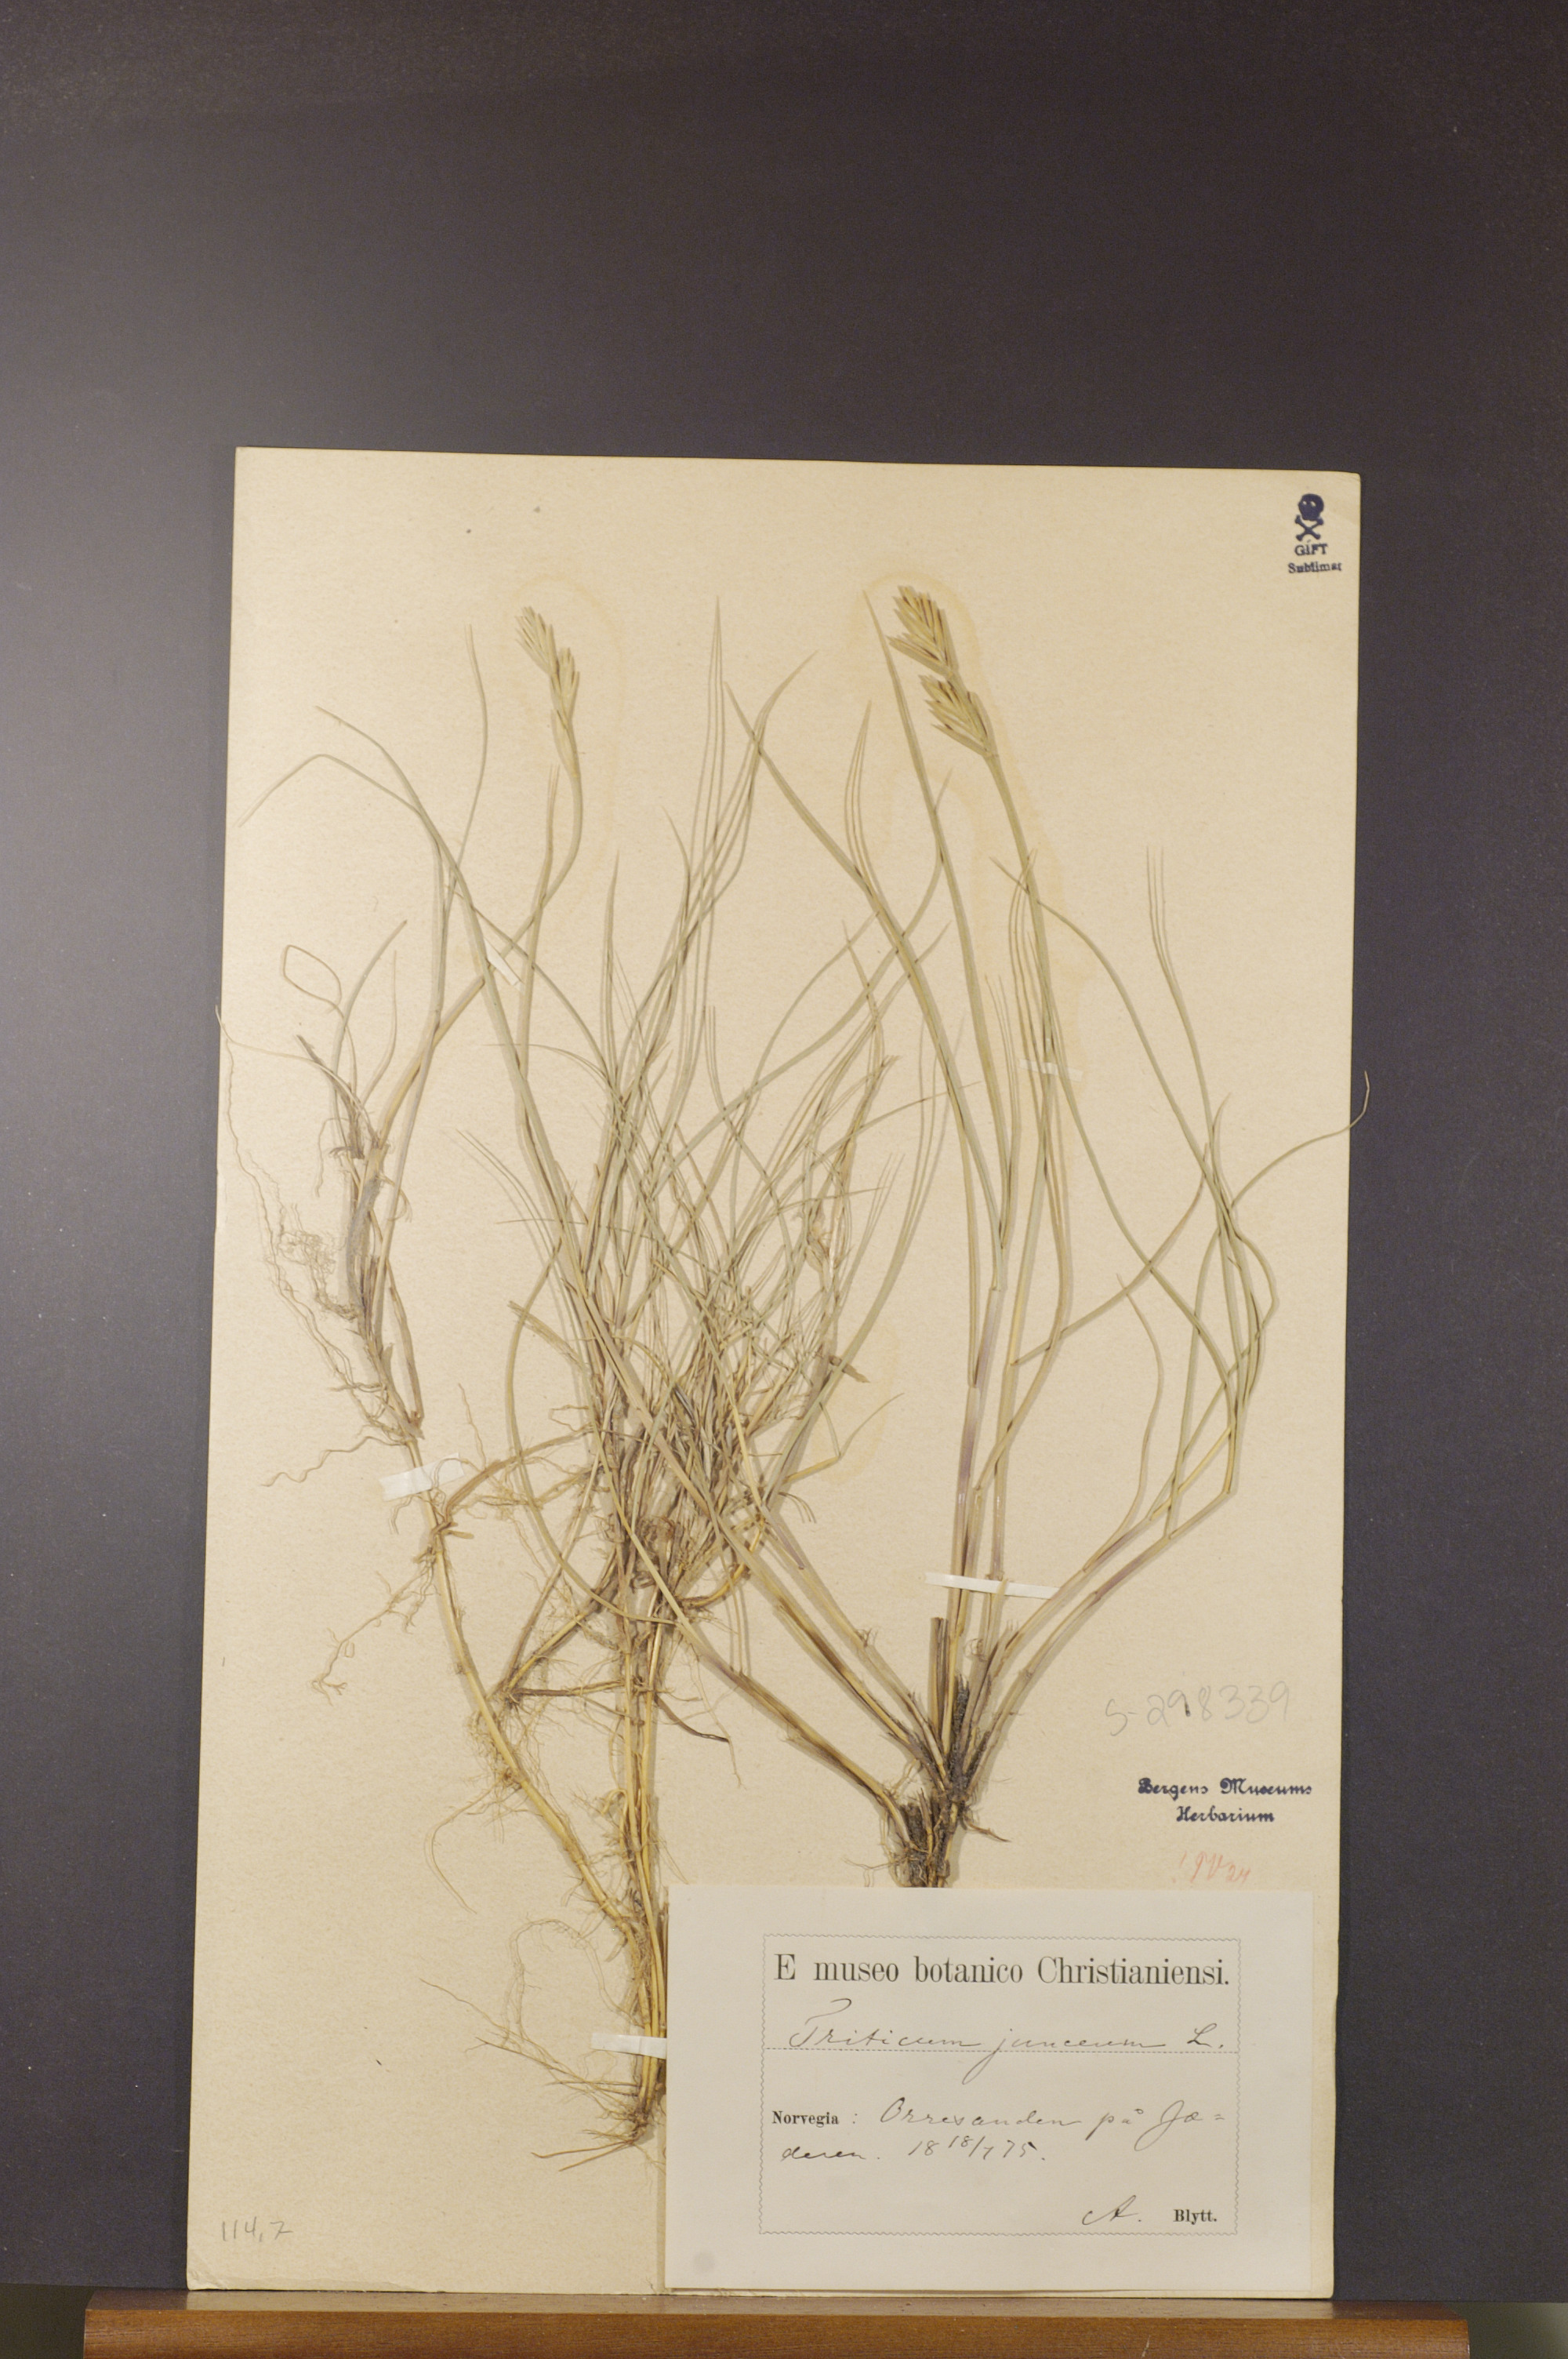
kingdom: Plantae
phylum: Tracheophyta
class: Liliopsida
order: Poales
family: Poaceae
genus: Thinopyrum
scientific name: Thinopyrum junceum
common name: Russian wheatgrass
